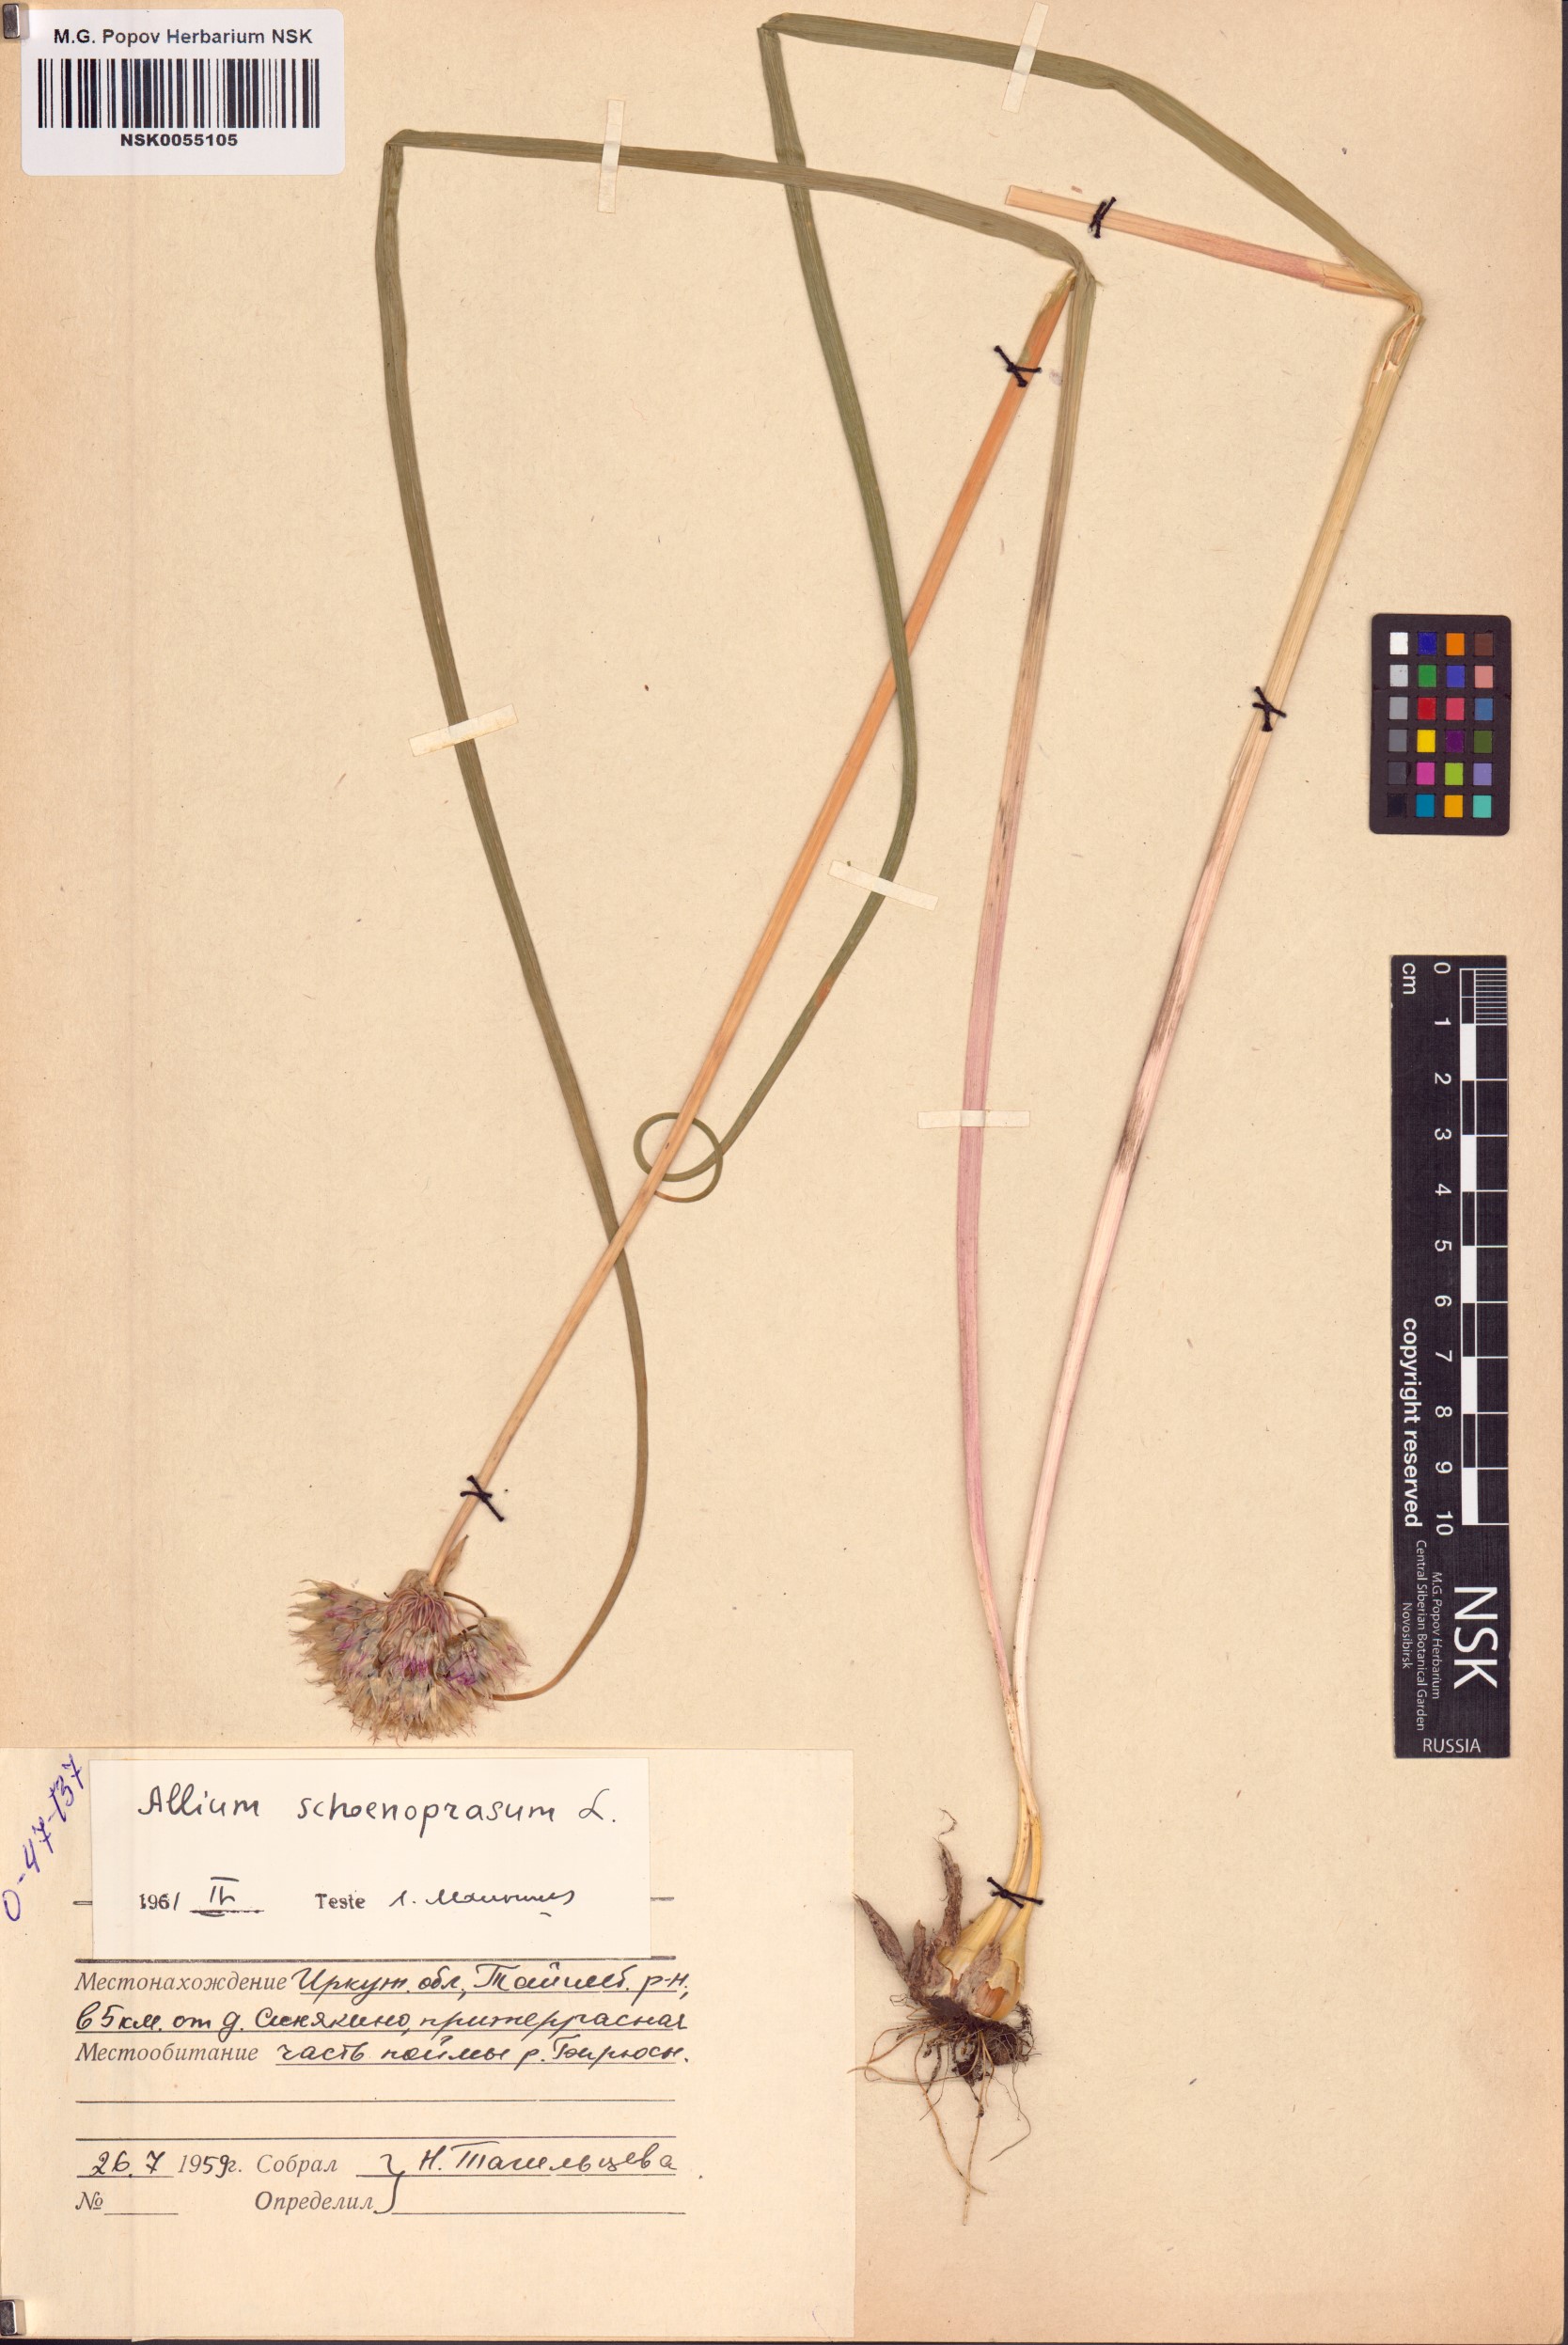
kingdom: Plantae
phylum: Tracheophyta
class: Liliopsida
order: Asparagales
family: Amaryllidaceae
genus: Allium
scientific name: Allium schoenoprasum
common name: Chives
